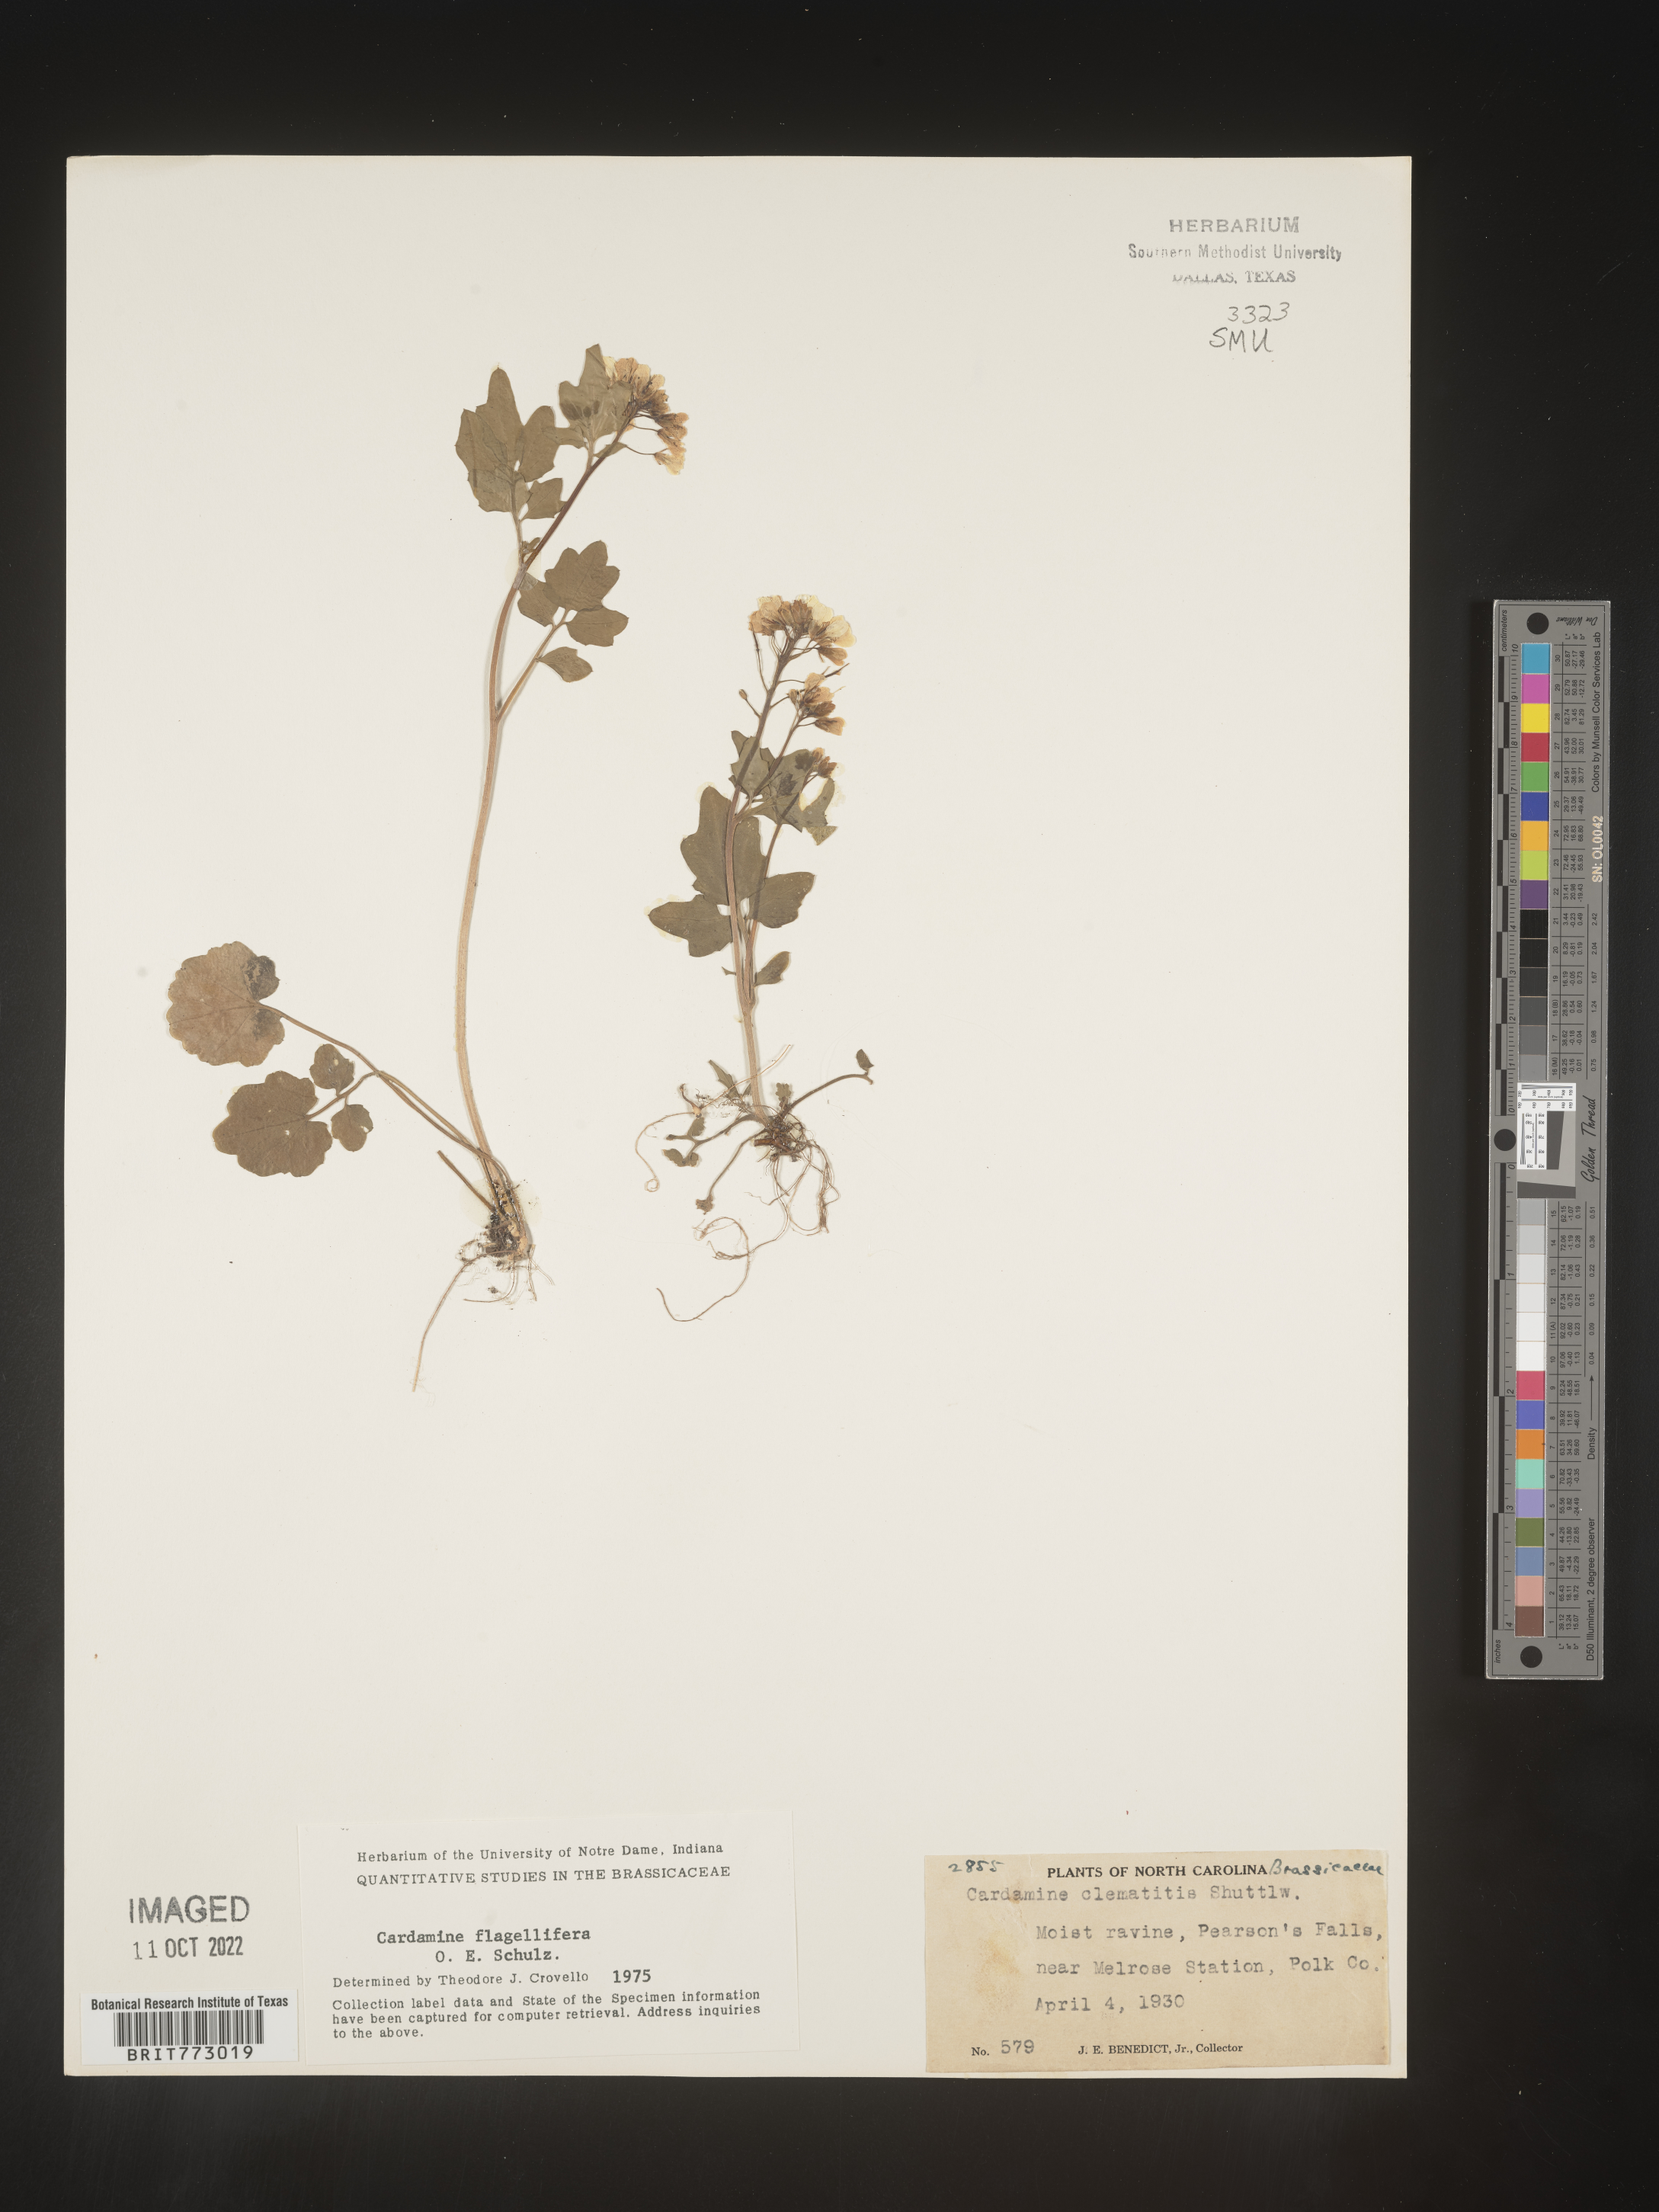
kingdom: Plantae
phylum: Tracheophyta
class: Magnoliopsida
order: Brassicales
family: Brassicaceae
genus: Cardamine
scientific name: Cardamine
